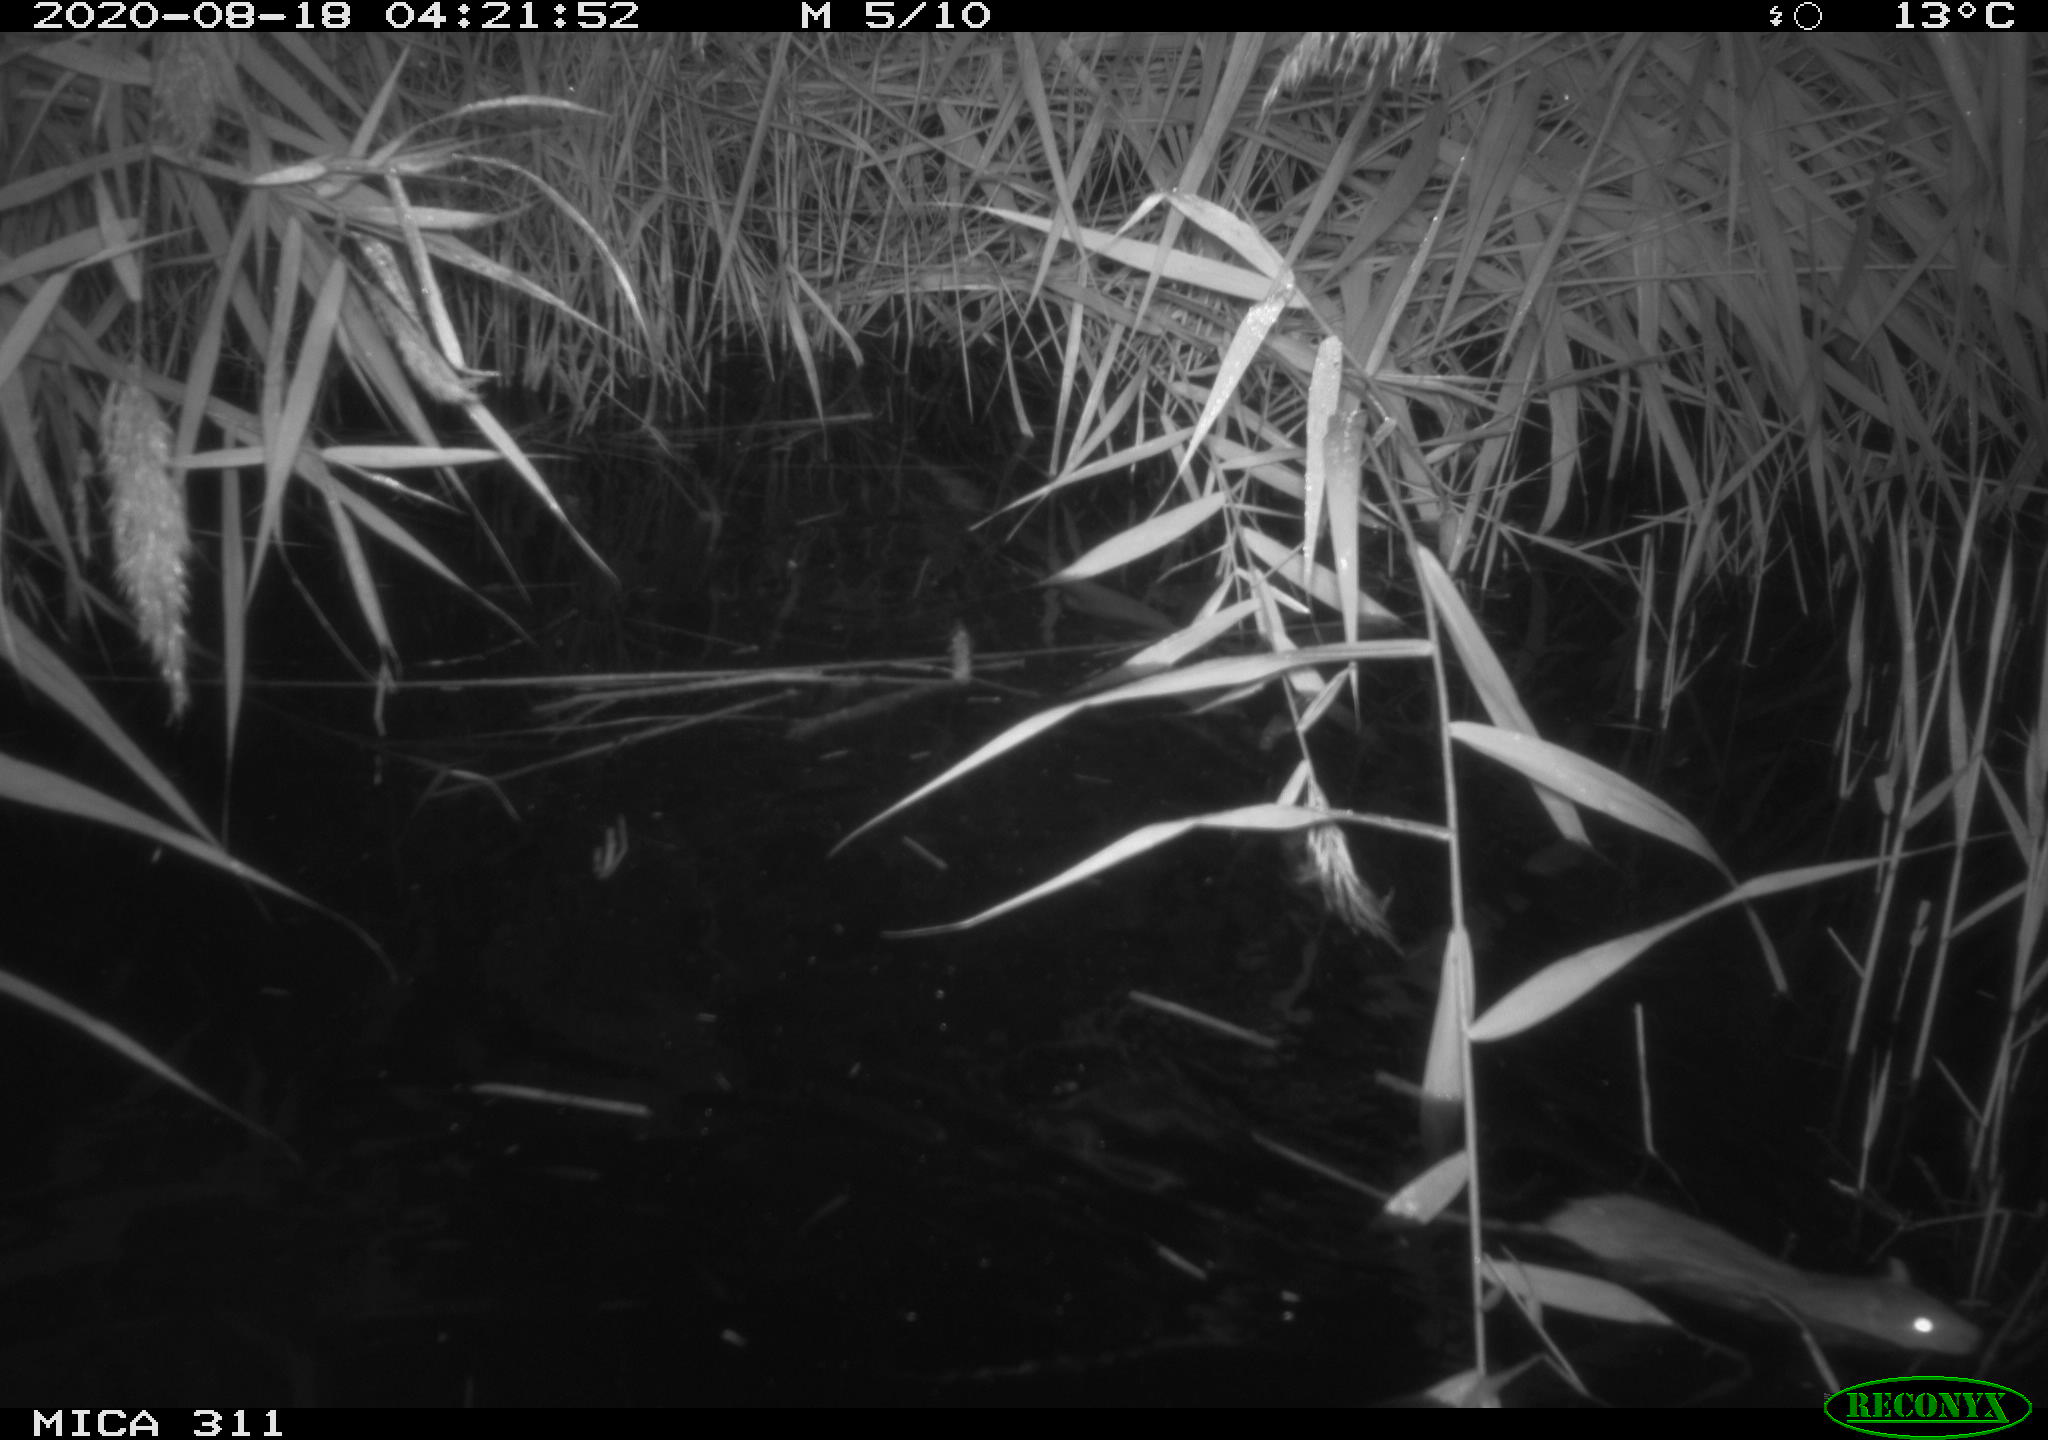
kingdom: Animalia
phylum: Chordata
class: Mammalia
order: Rodentia
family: Muridae
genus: Rattus
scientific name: Rattus norvegicus
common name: Brown rat
